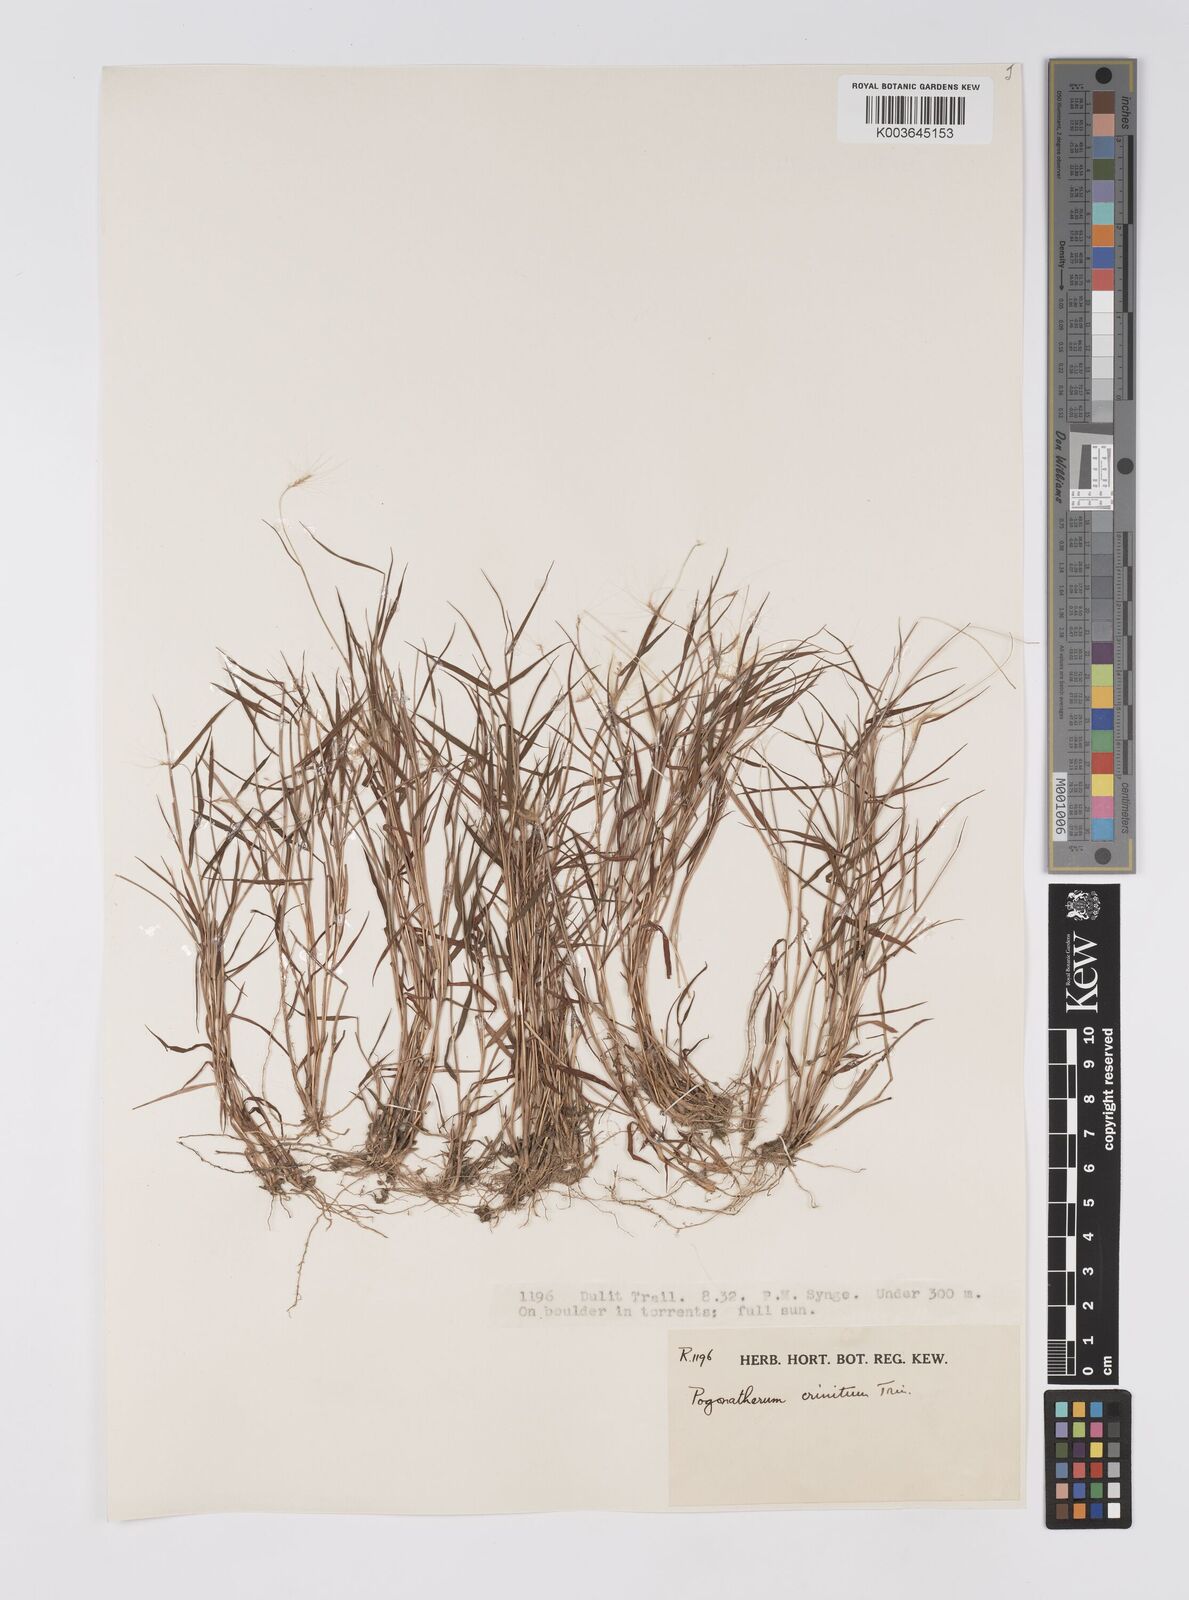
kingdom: Plantae
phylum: Tracheophyta
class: Liliopsida
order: Poales
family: Poaceae
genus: Pogonatherum
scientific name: Pogonatherum crinitum
